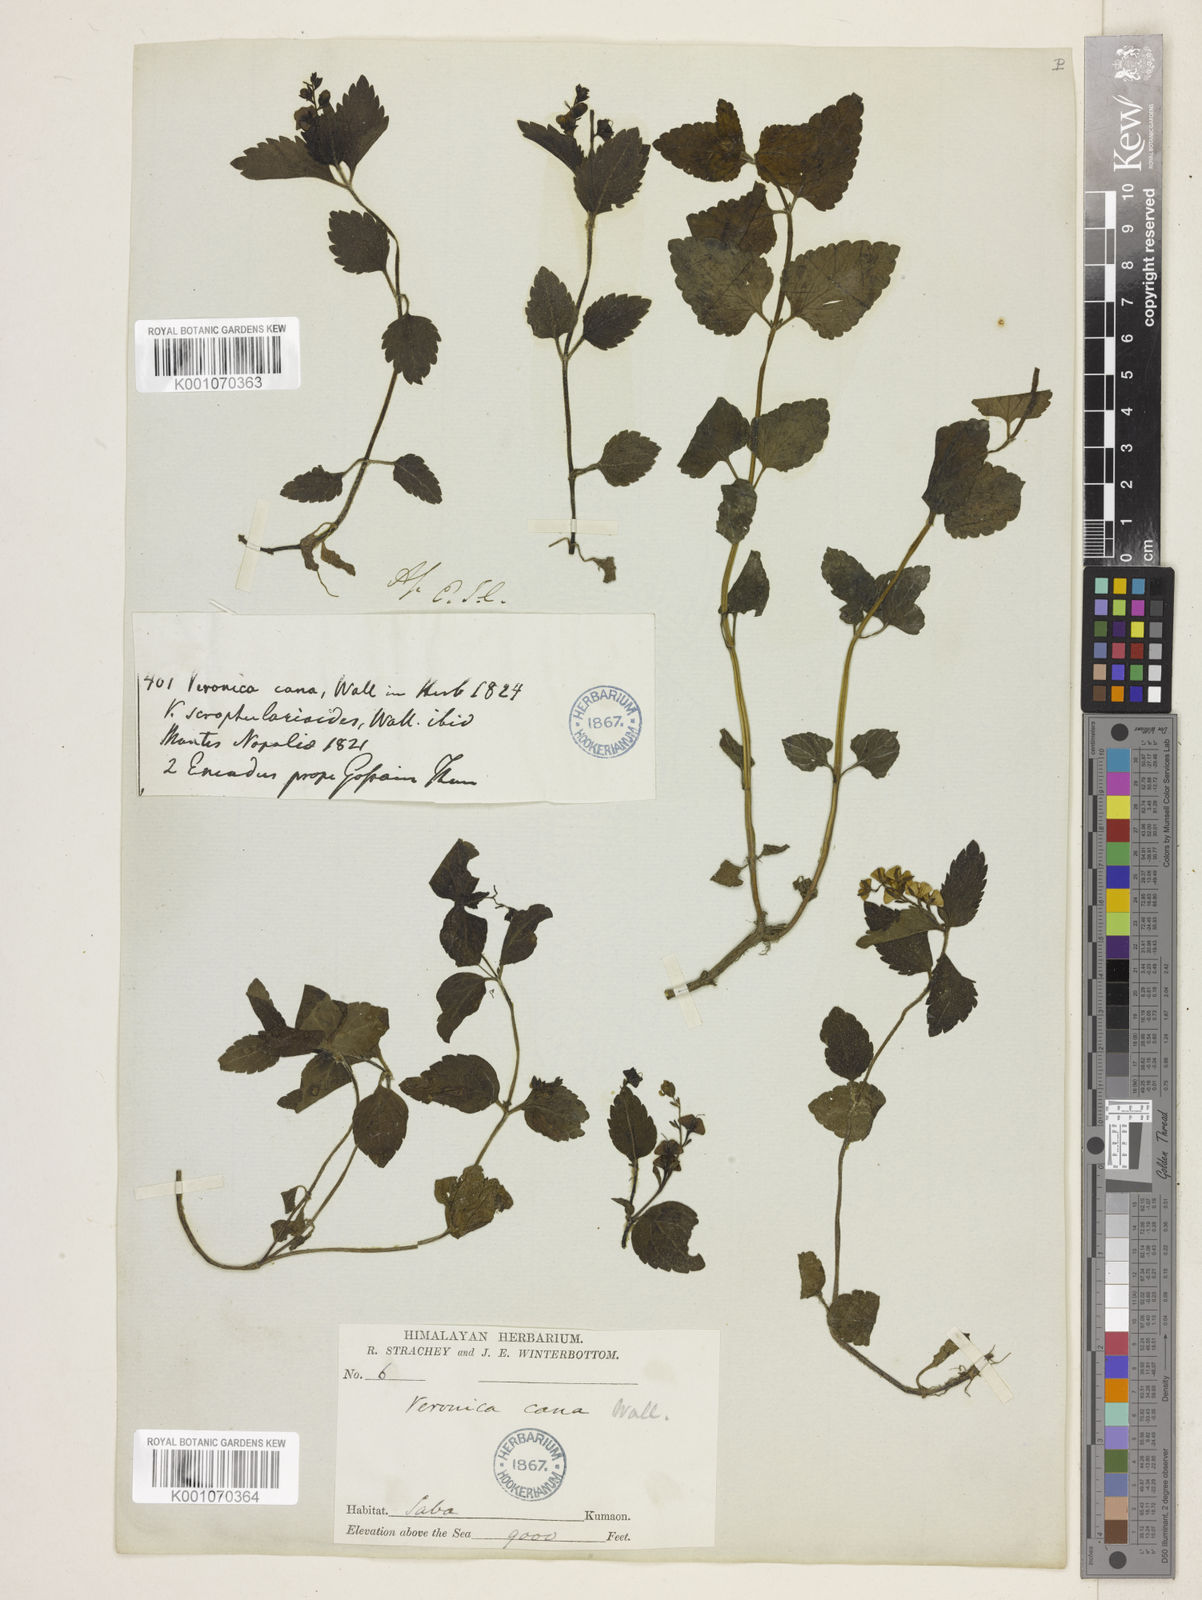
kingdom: Plantae
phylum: Tracheophyta
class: Magnoliopsida
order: Lamiales
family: Plantaginaceae
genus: Veronica
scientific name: Veronica cana
